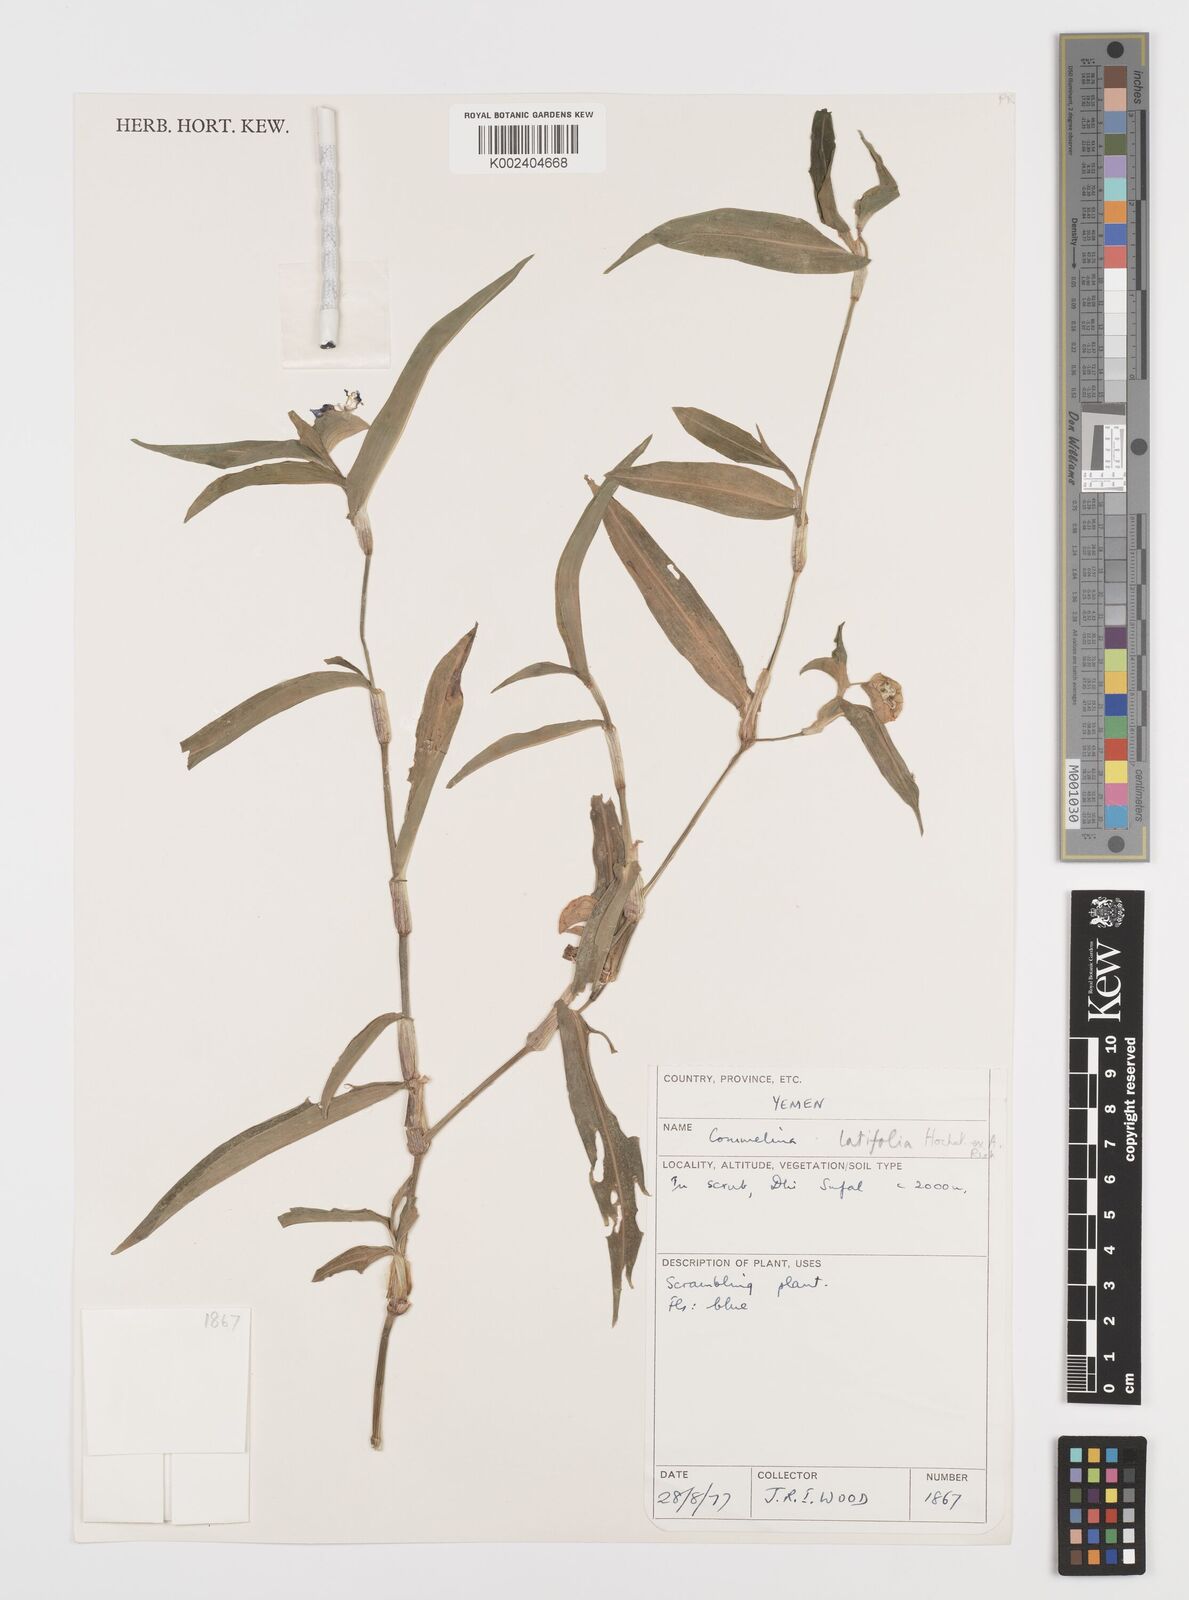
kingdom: Plantae
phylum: Tracheophyta
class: Liliopsida
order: Commelinales
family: Commelinaceae
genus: Commelina
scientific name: Commelina latifolia
